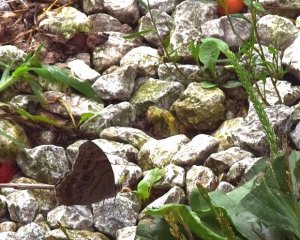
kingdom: Animalia
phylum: Arthropoda
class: Insecta
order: Lepidoptera
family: Nymphalidae
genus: Lethe
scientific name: Lethe anthedon
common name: Northern Pearly-Eye
